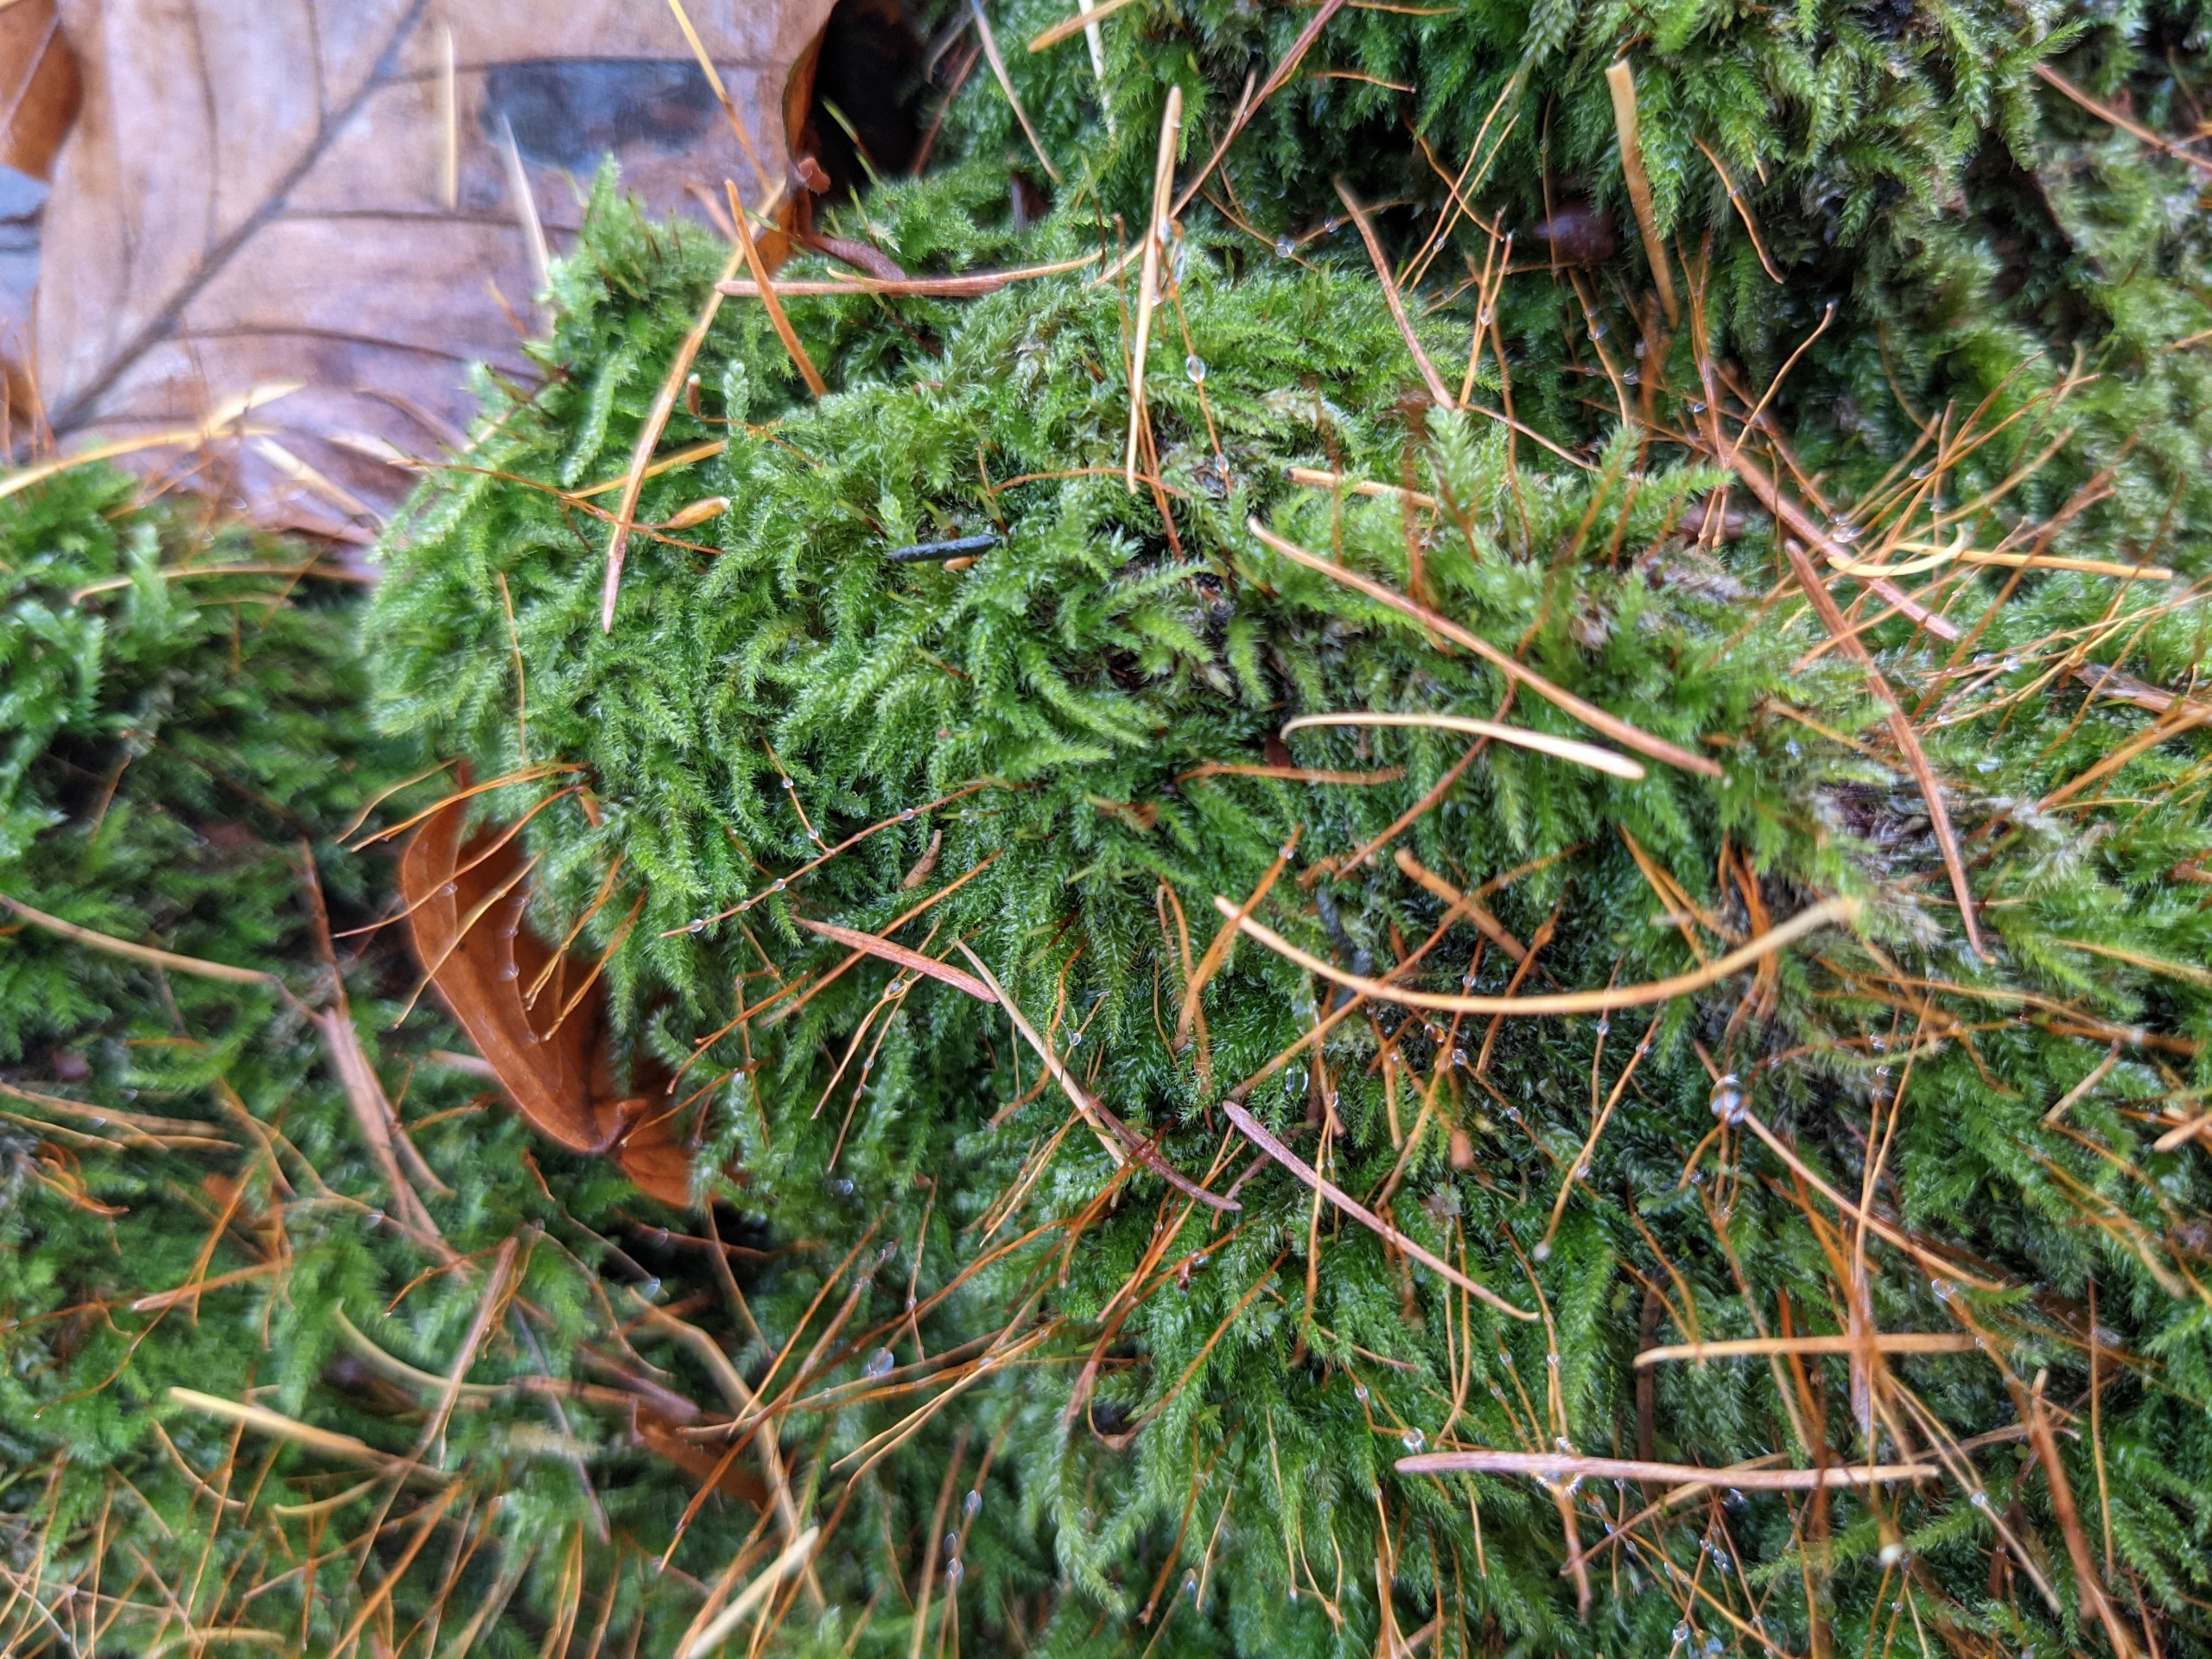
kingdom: Plantae
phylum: Bryophyta
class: Bryopsida
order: Hypnales
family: Plagiotheciaceae
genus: Herzogiella
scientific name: Herzogiella seligeri
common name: Stub-pølsekapsel
